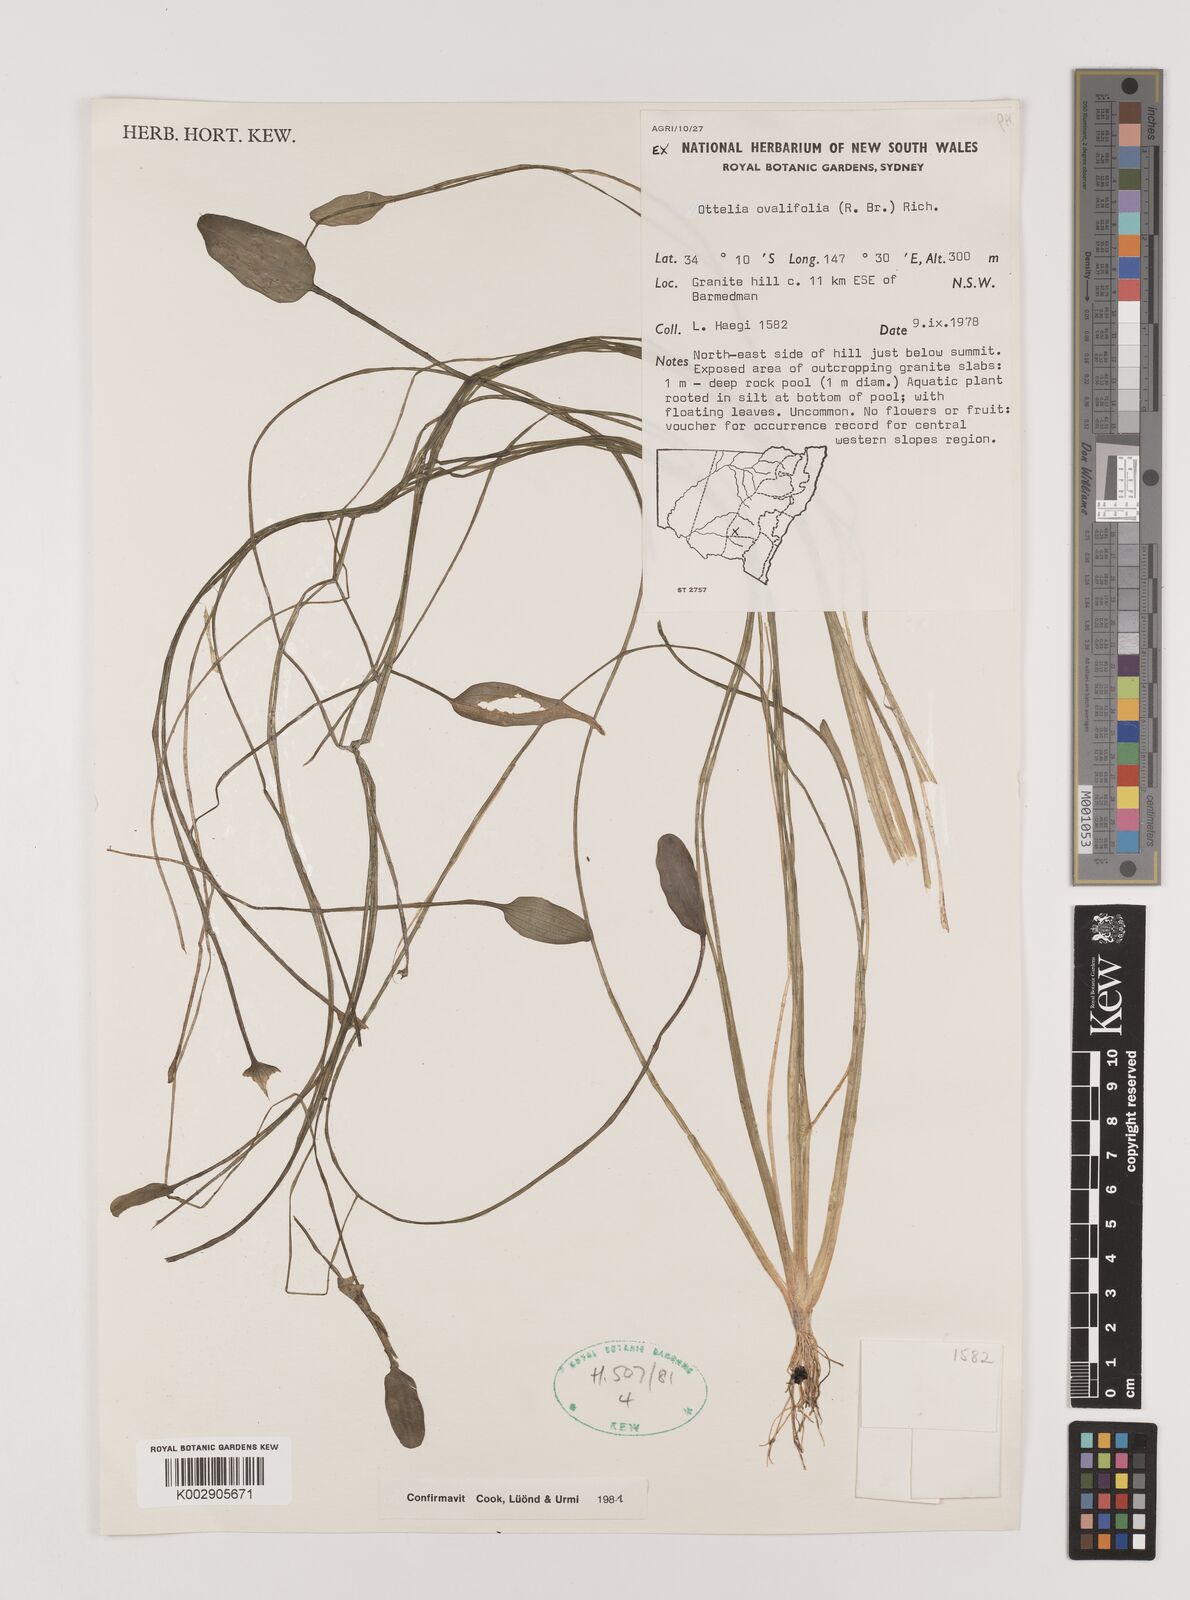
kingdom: Plantae
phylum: Tracheophyta
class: Liliopsida
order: Alismatales
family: Hydrocharitaceae
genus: Ottelia
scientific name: Ottelia ovalifolia
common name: Swamp-lily
